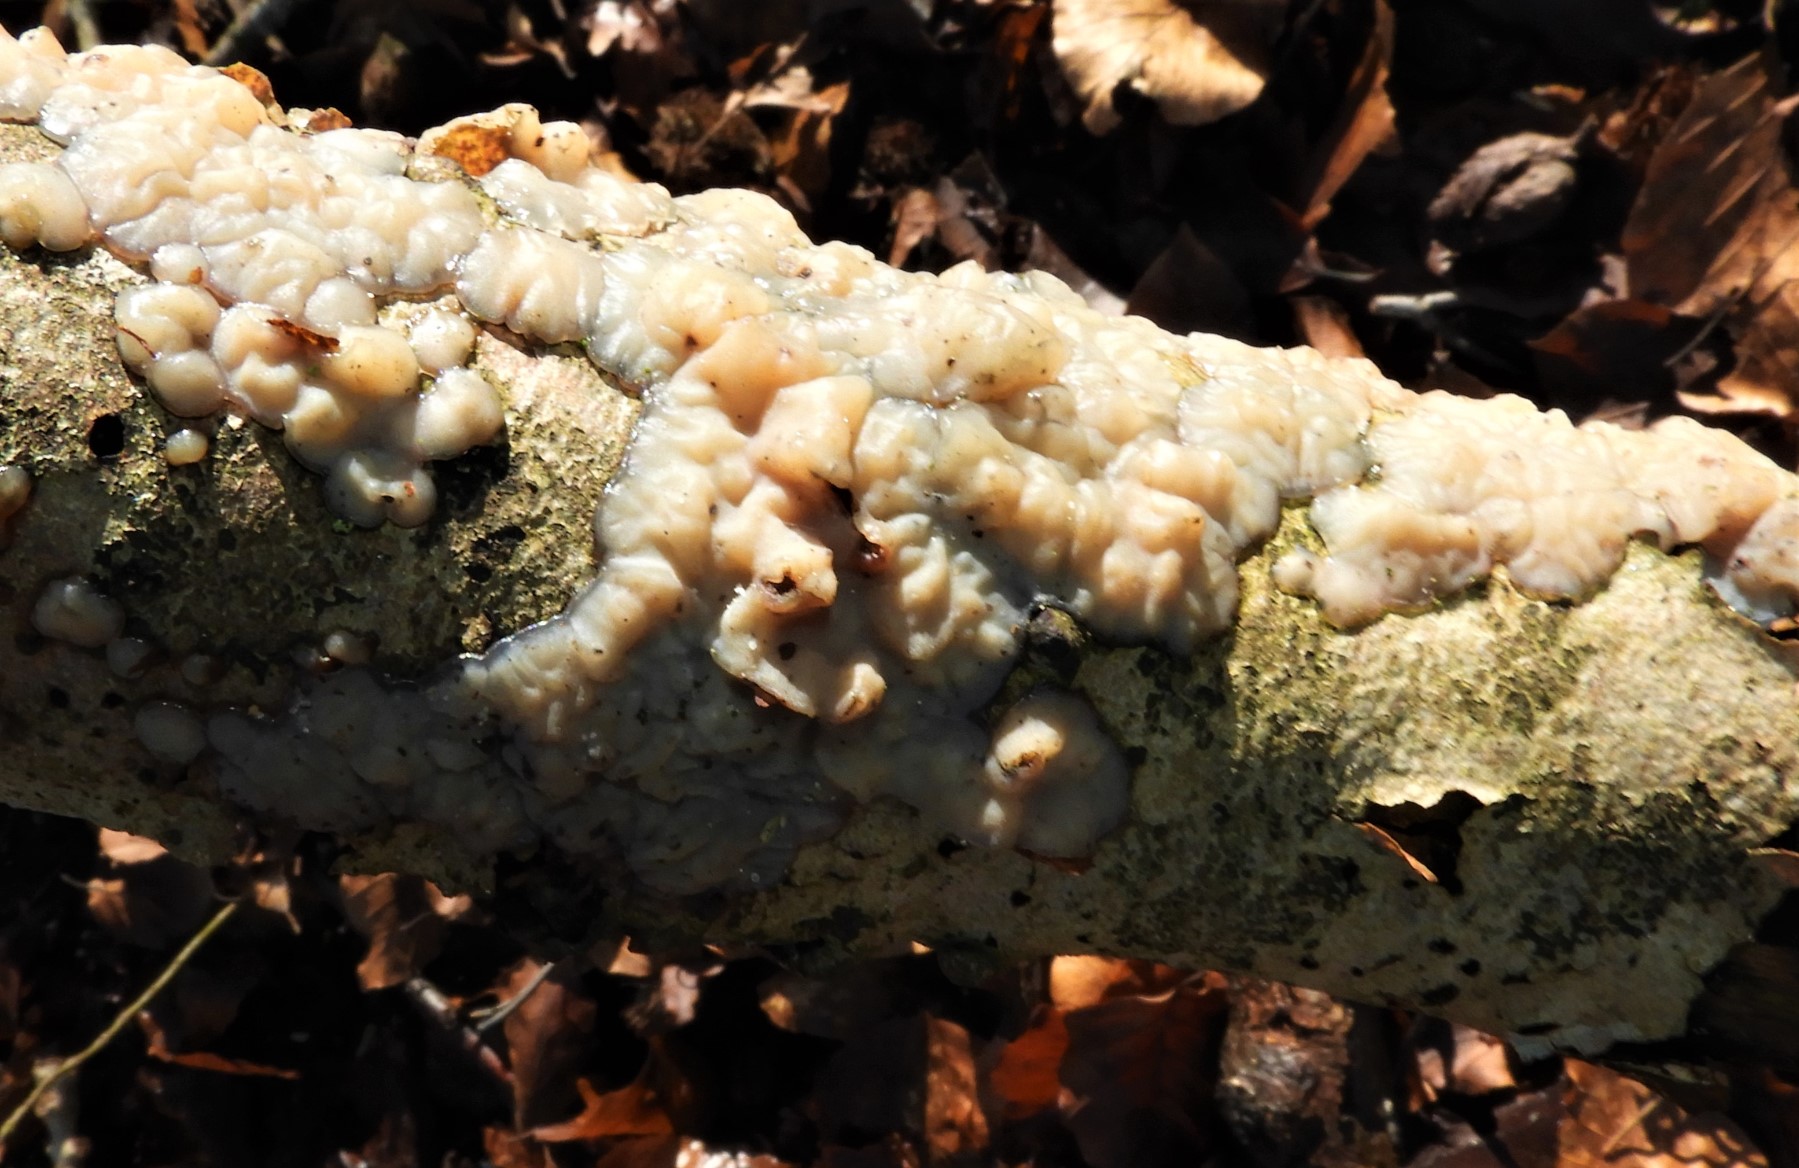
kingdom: Fungi
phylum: Basidiomycota
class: Agaricomycetes
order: Auriculariales
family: Auriculariaceae
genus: Exidia
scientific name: Exidia thuretiana
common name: hvidlig bævretop
